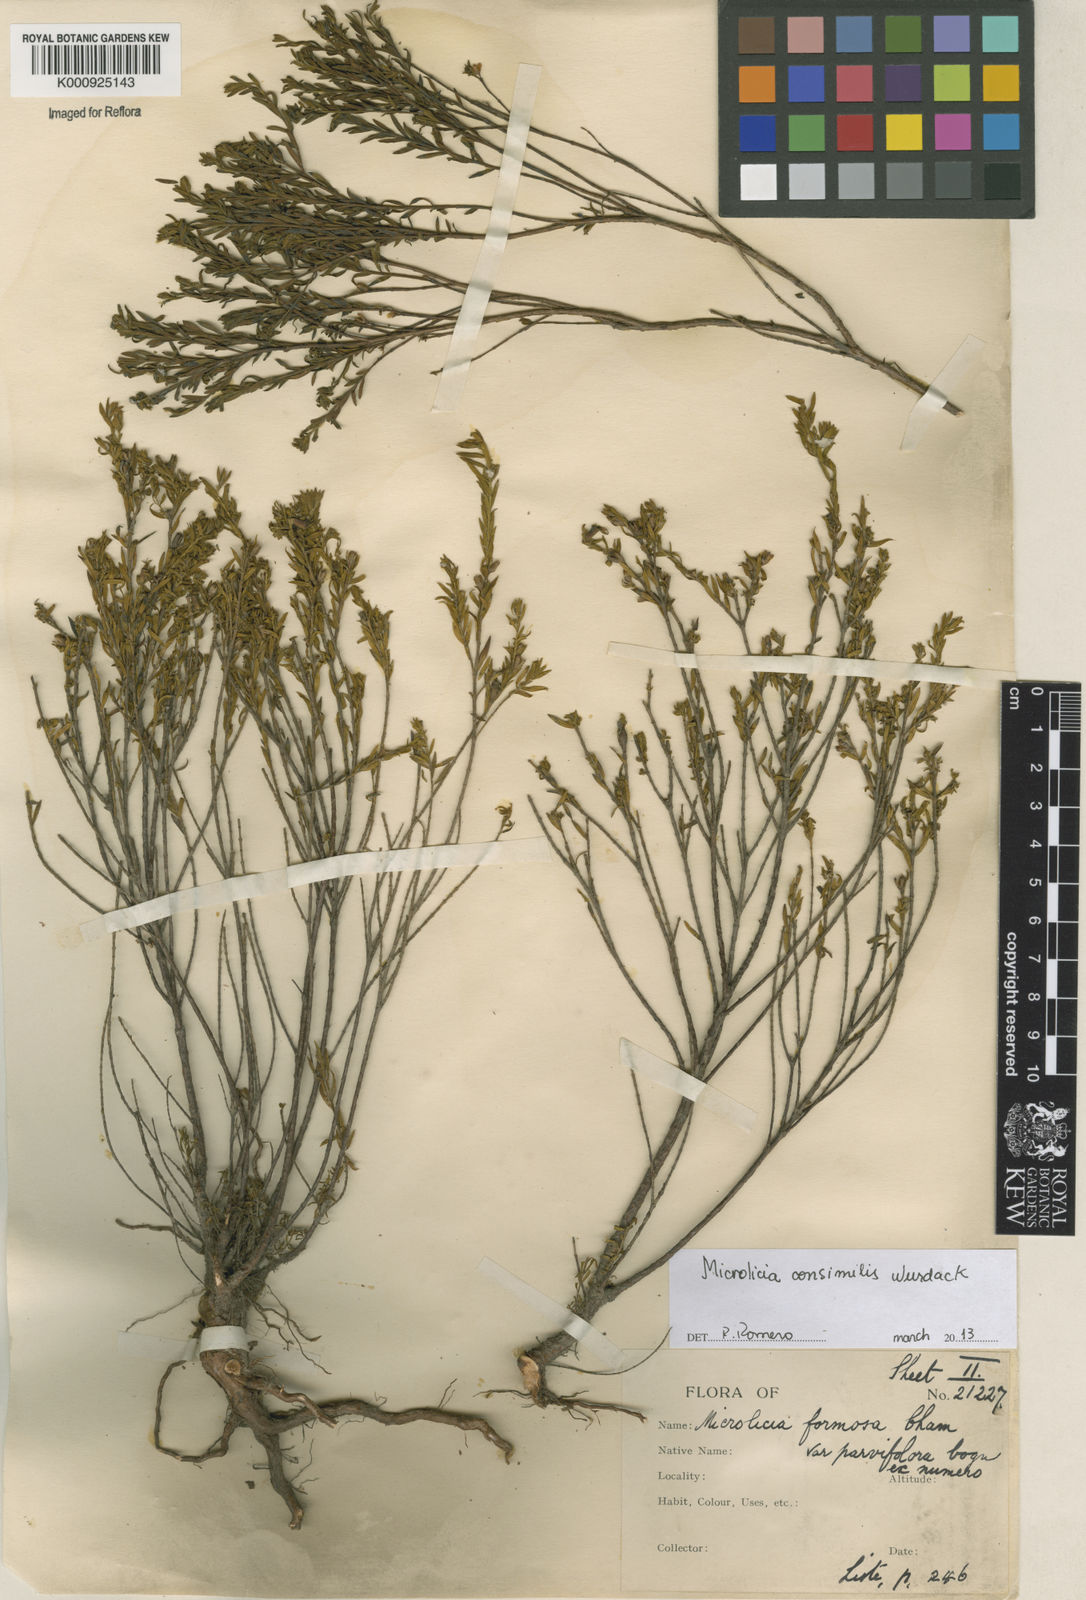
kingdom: Plantae
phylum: Tracheophyta
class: Magnoliopsida
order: Myrtales
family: Melastomataceae
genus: Microlicia
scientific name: Microlicia consimilis
